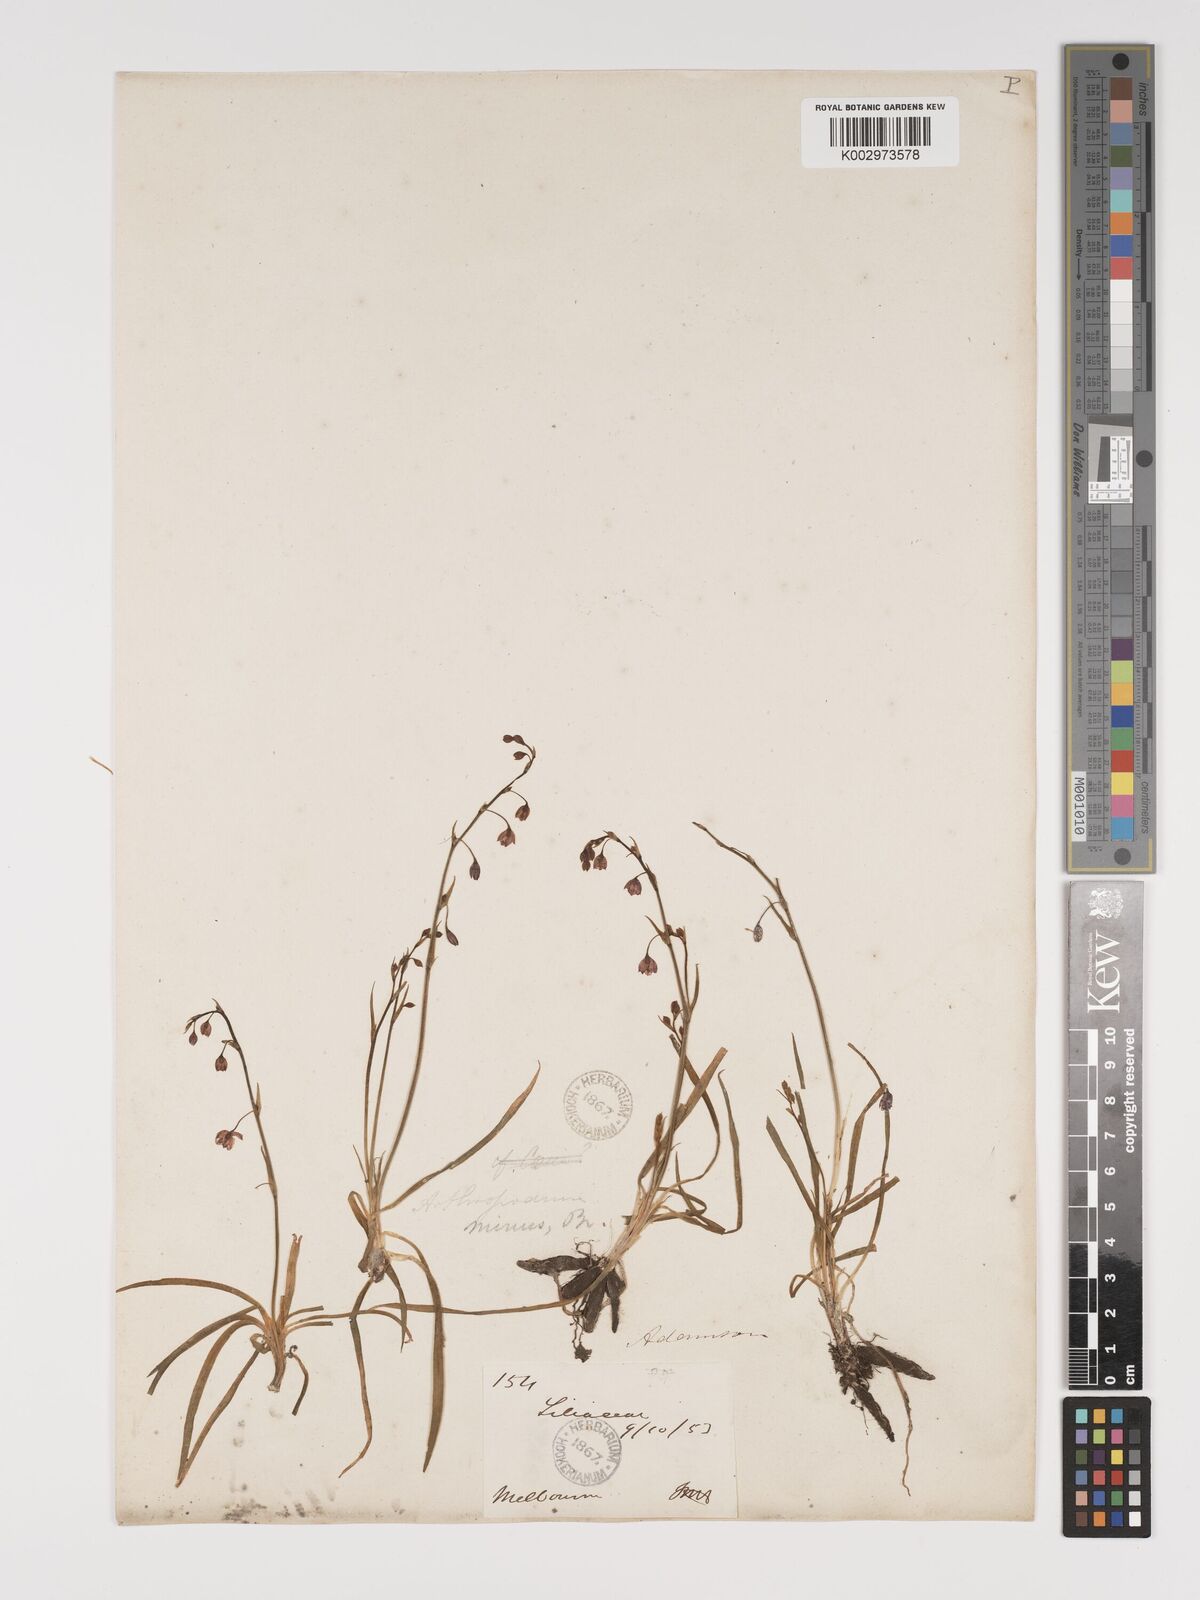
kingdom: Plantae
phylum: Tracheophyta
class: Liliopsida
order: Asparagales
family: Asparagaceae
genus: Arthropodium
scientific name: Arthropodium minus
